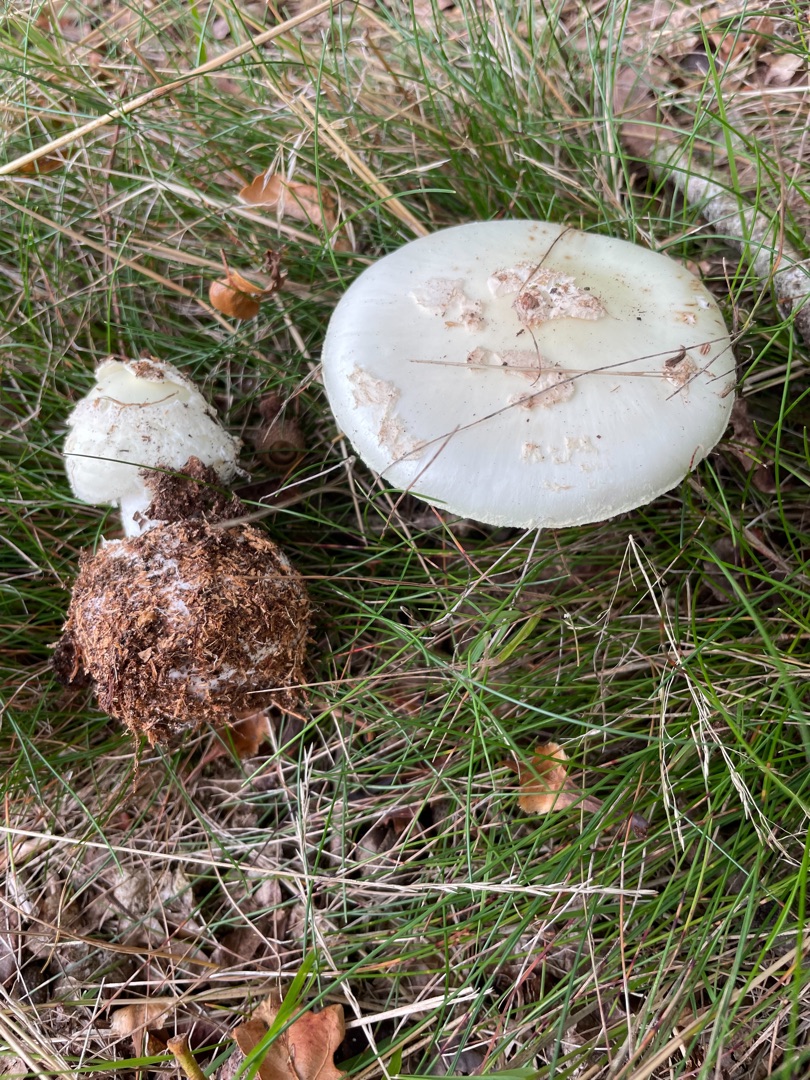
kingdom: Fungi
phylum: Basidiomycota
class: Agaricomycetes
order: Agaricales
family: Amanitaceae
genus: Amanita
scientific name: Amanita citrina
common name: Kugleknoldet fluesvamp
